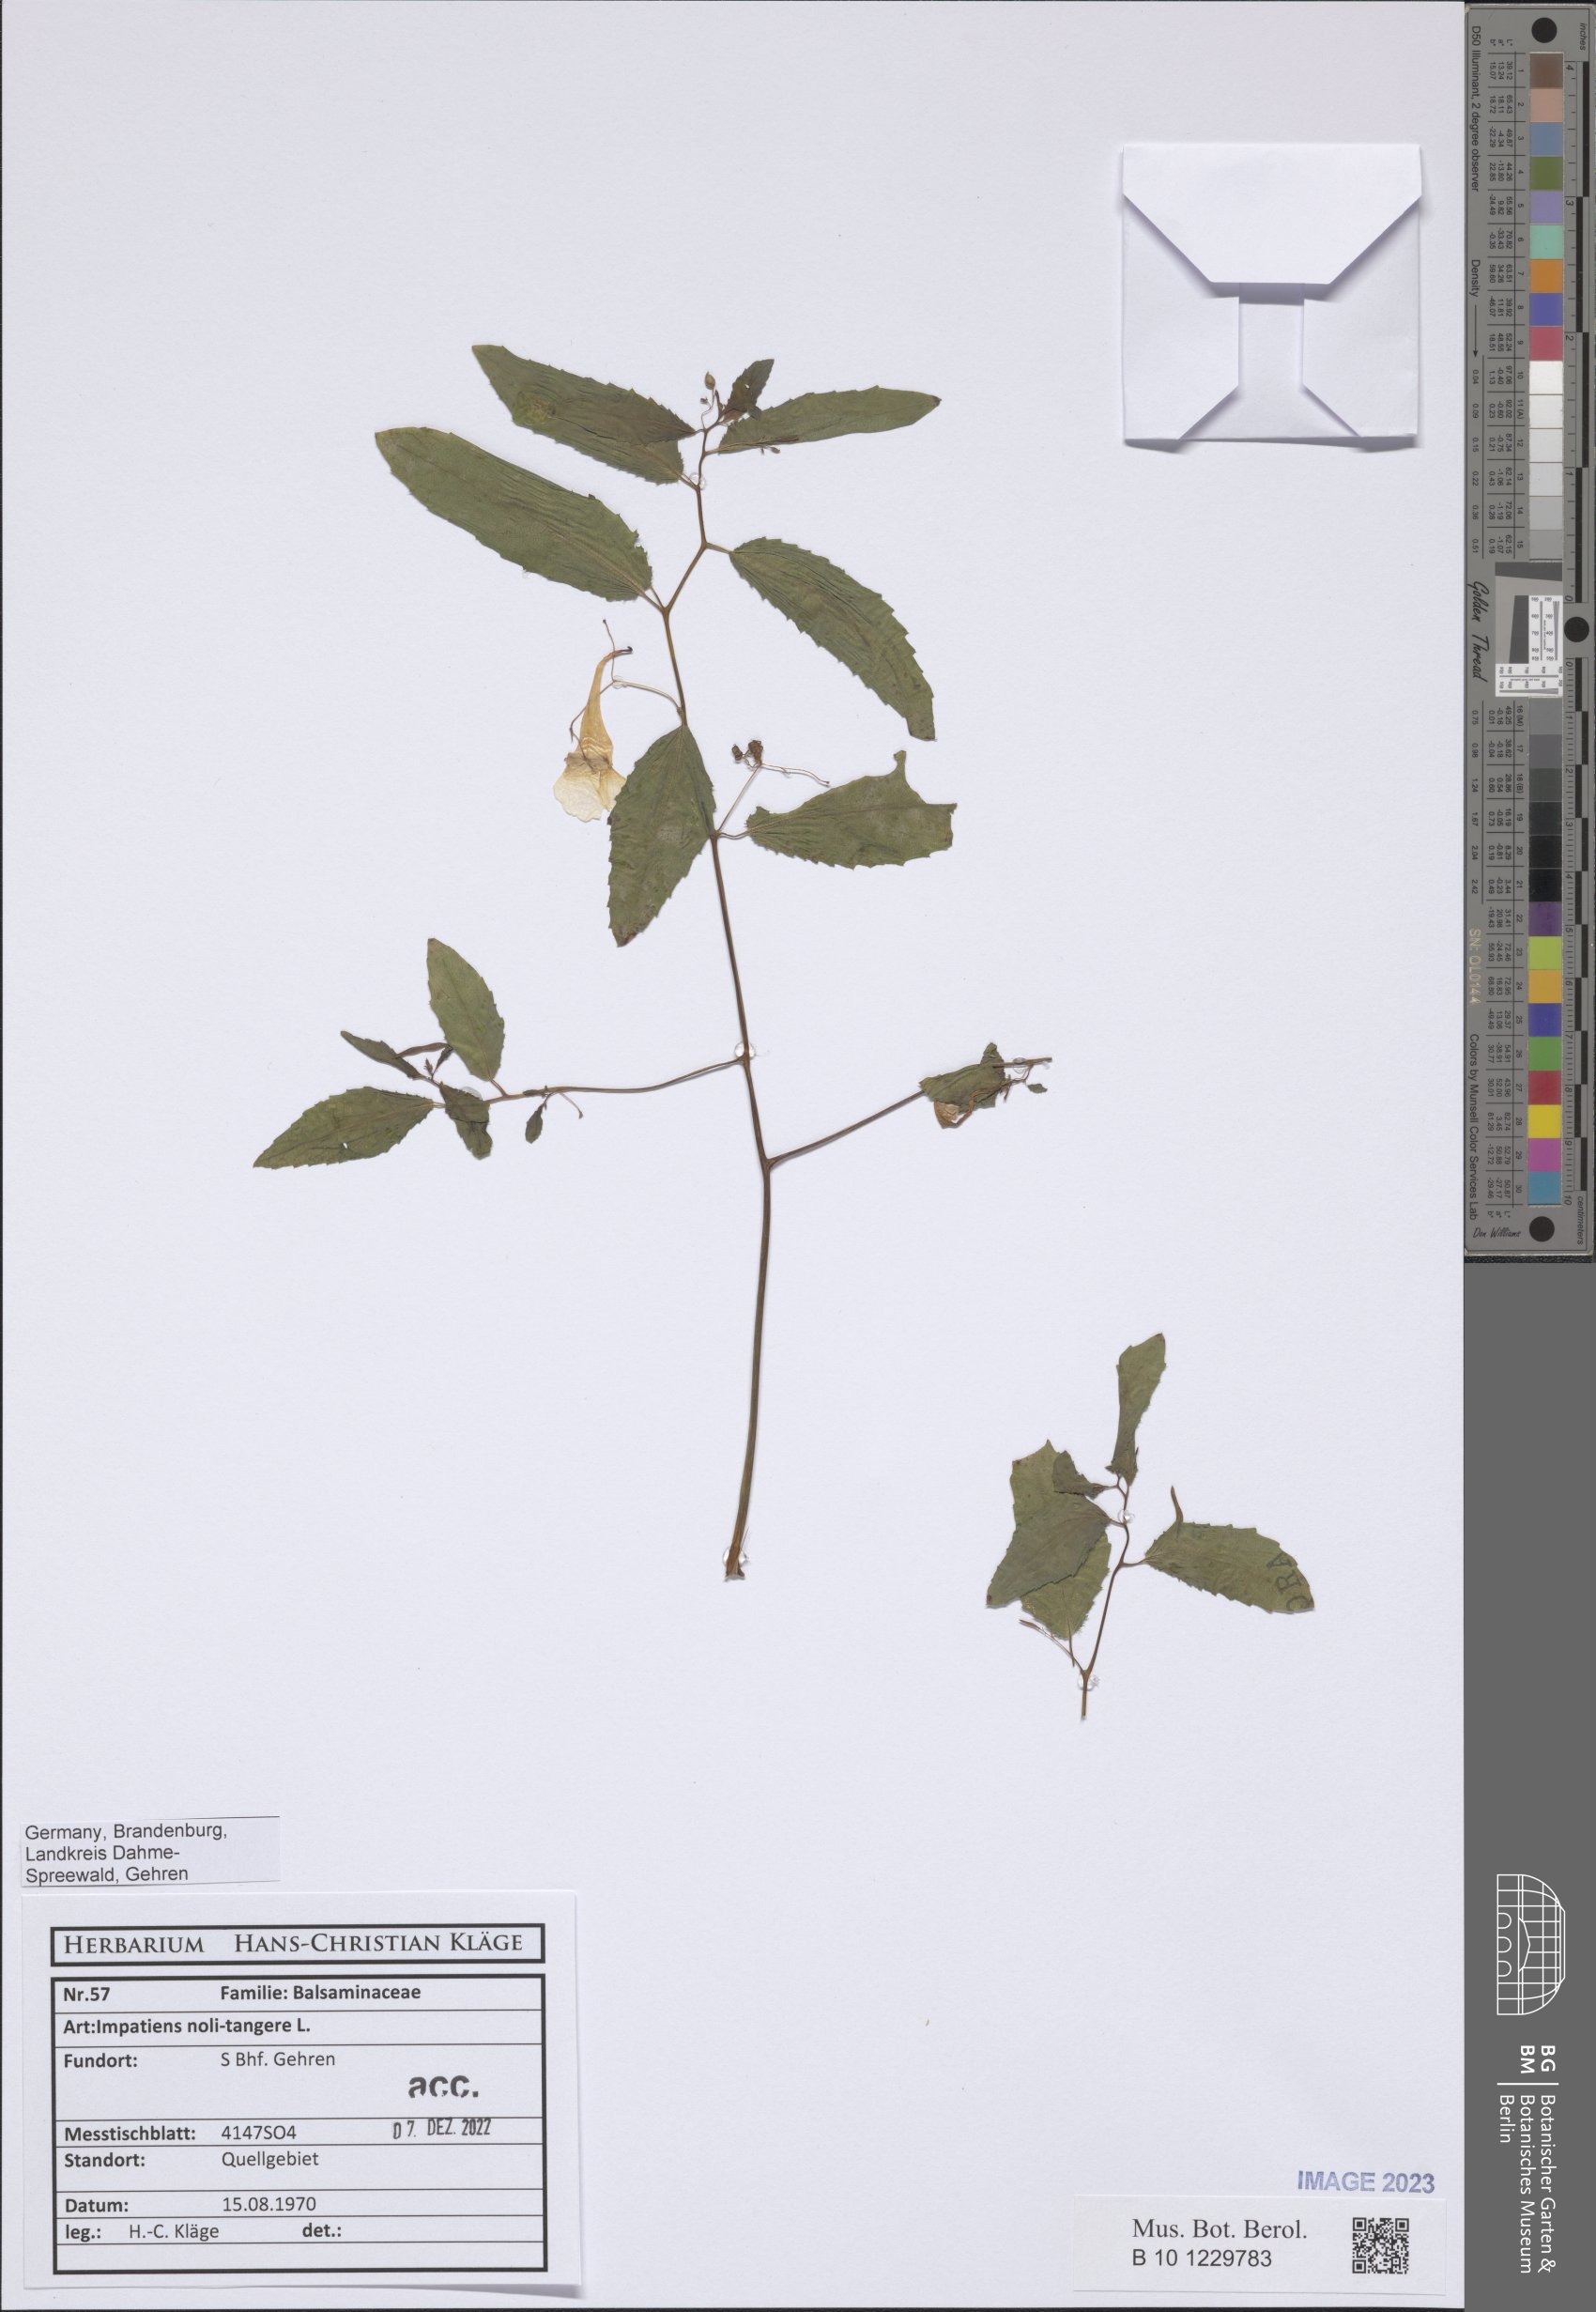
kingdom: Plantae
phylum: Tracheophyta
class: Magnoliopsida
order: Ericales
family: Balsaminaceae
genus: Impatiens
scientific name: Impatiens noli-tangere
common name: Touch-me-not balsam
